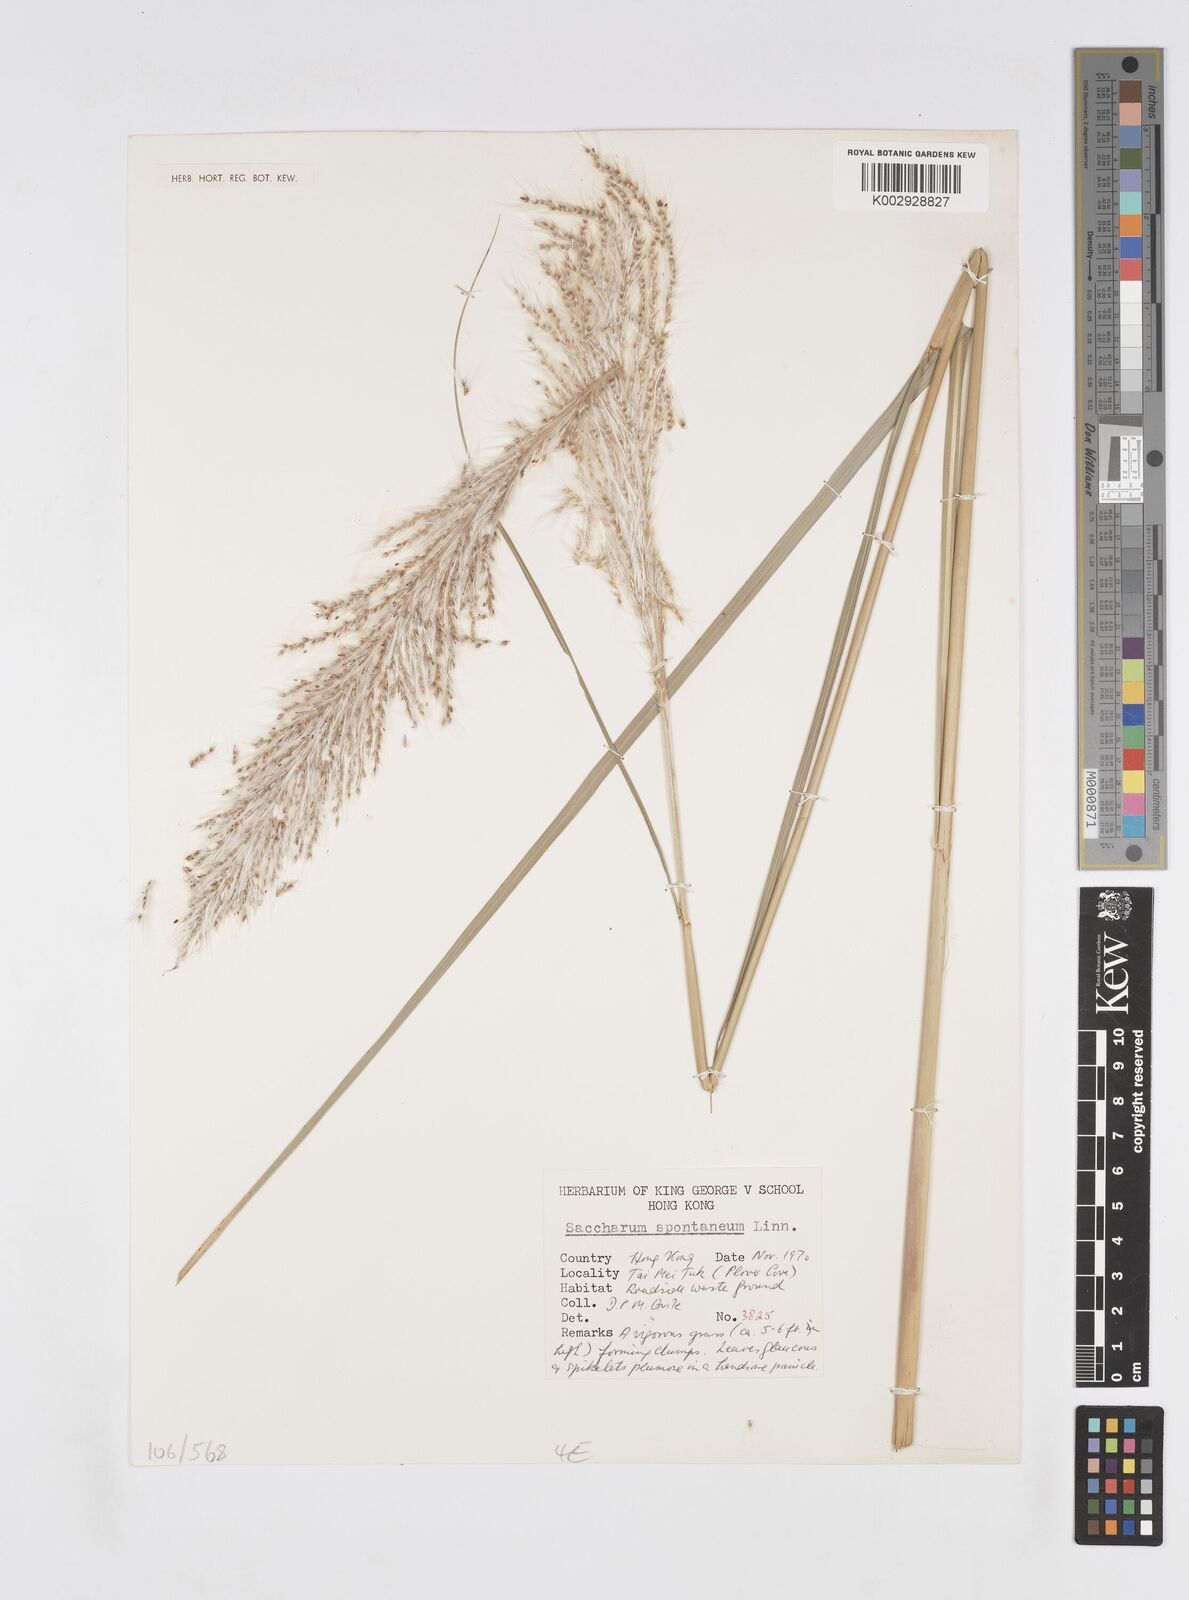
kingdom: Plantae
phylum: Tracheophyta
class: Liliopsida
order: Poales
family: Poaceae
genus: Saccharum
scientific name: Saccharum spontaneum
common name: Wild sugarcane
